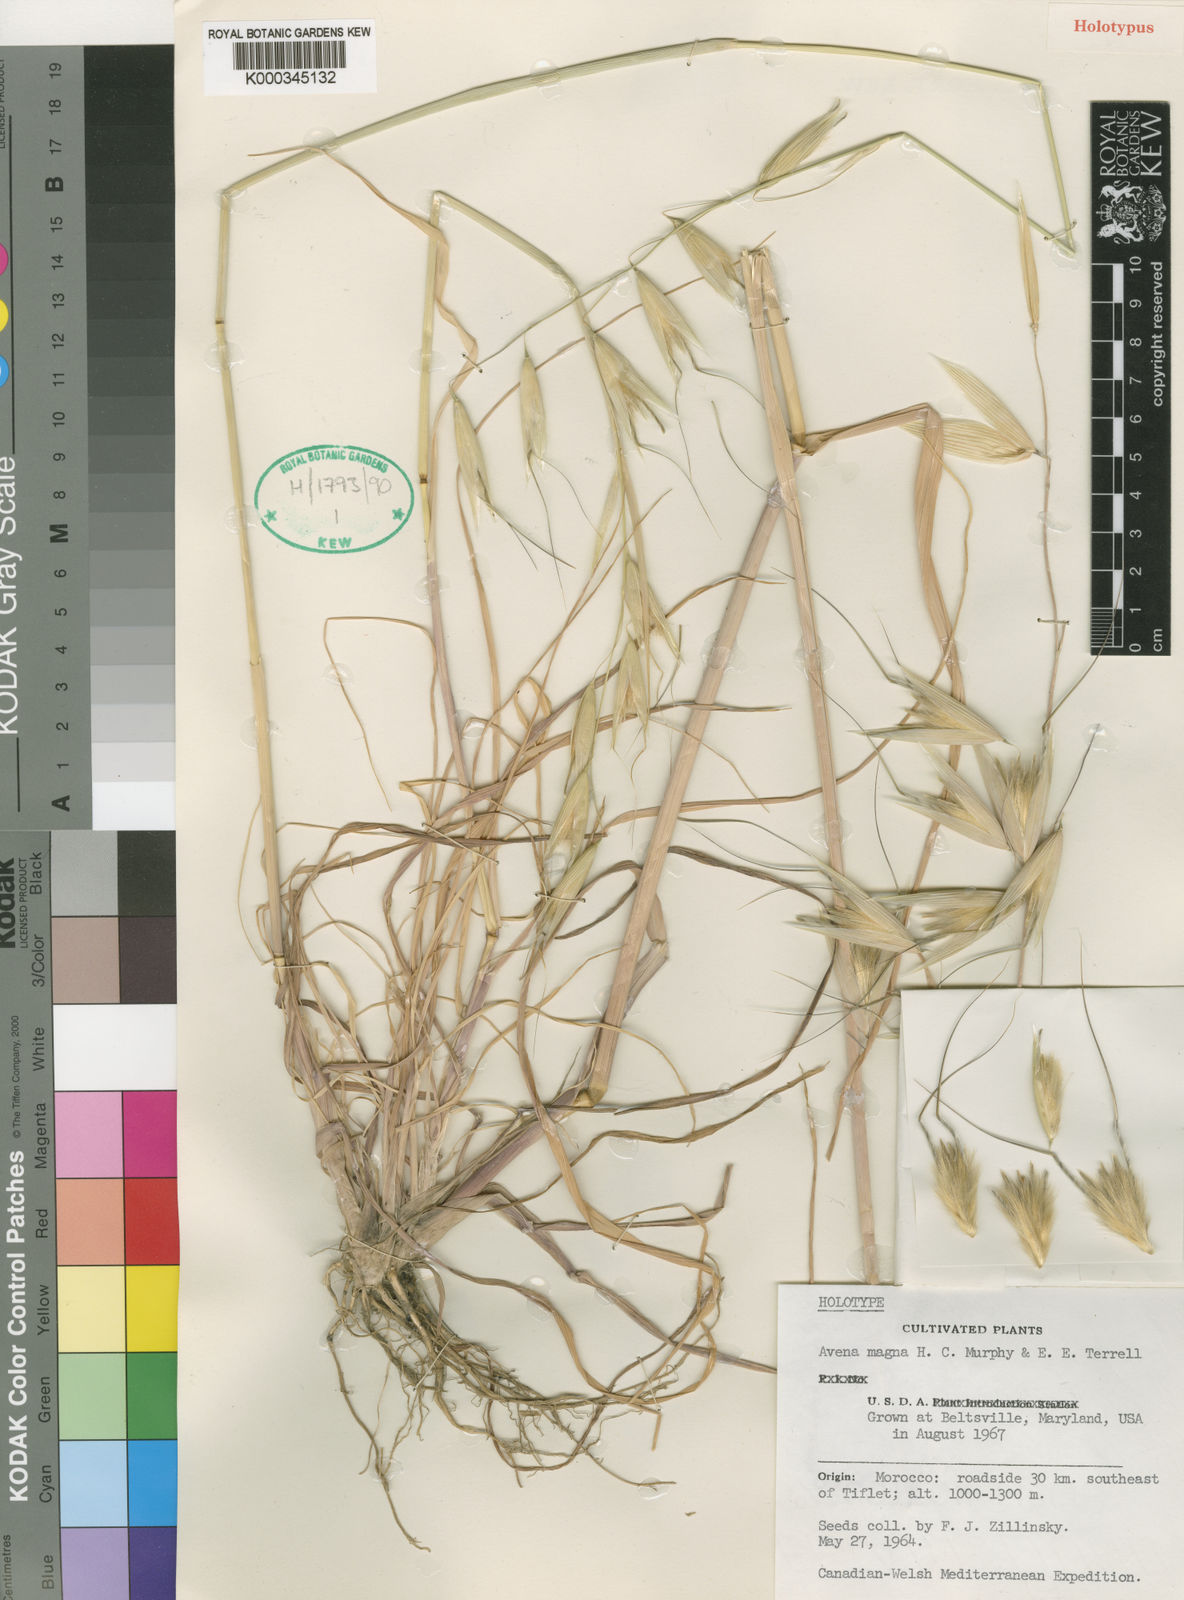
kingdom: Plantae
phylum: Tracheophyta
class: Liliopsida
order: Poales
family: Poaceae
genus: Avena
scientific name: Avena sterilis
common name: Animated oat
